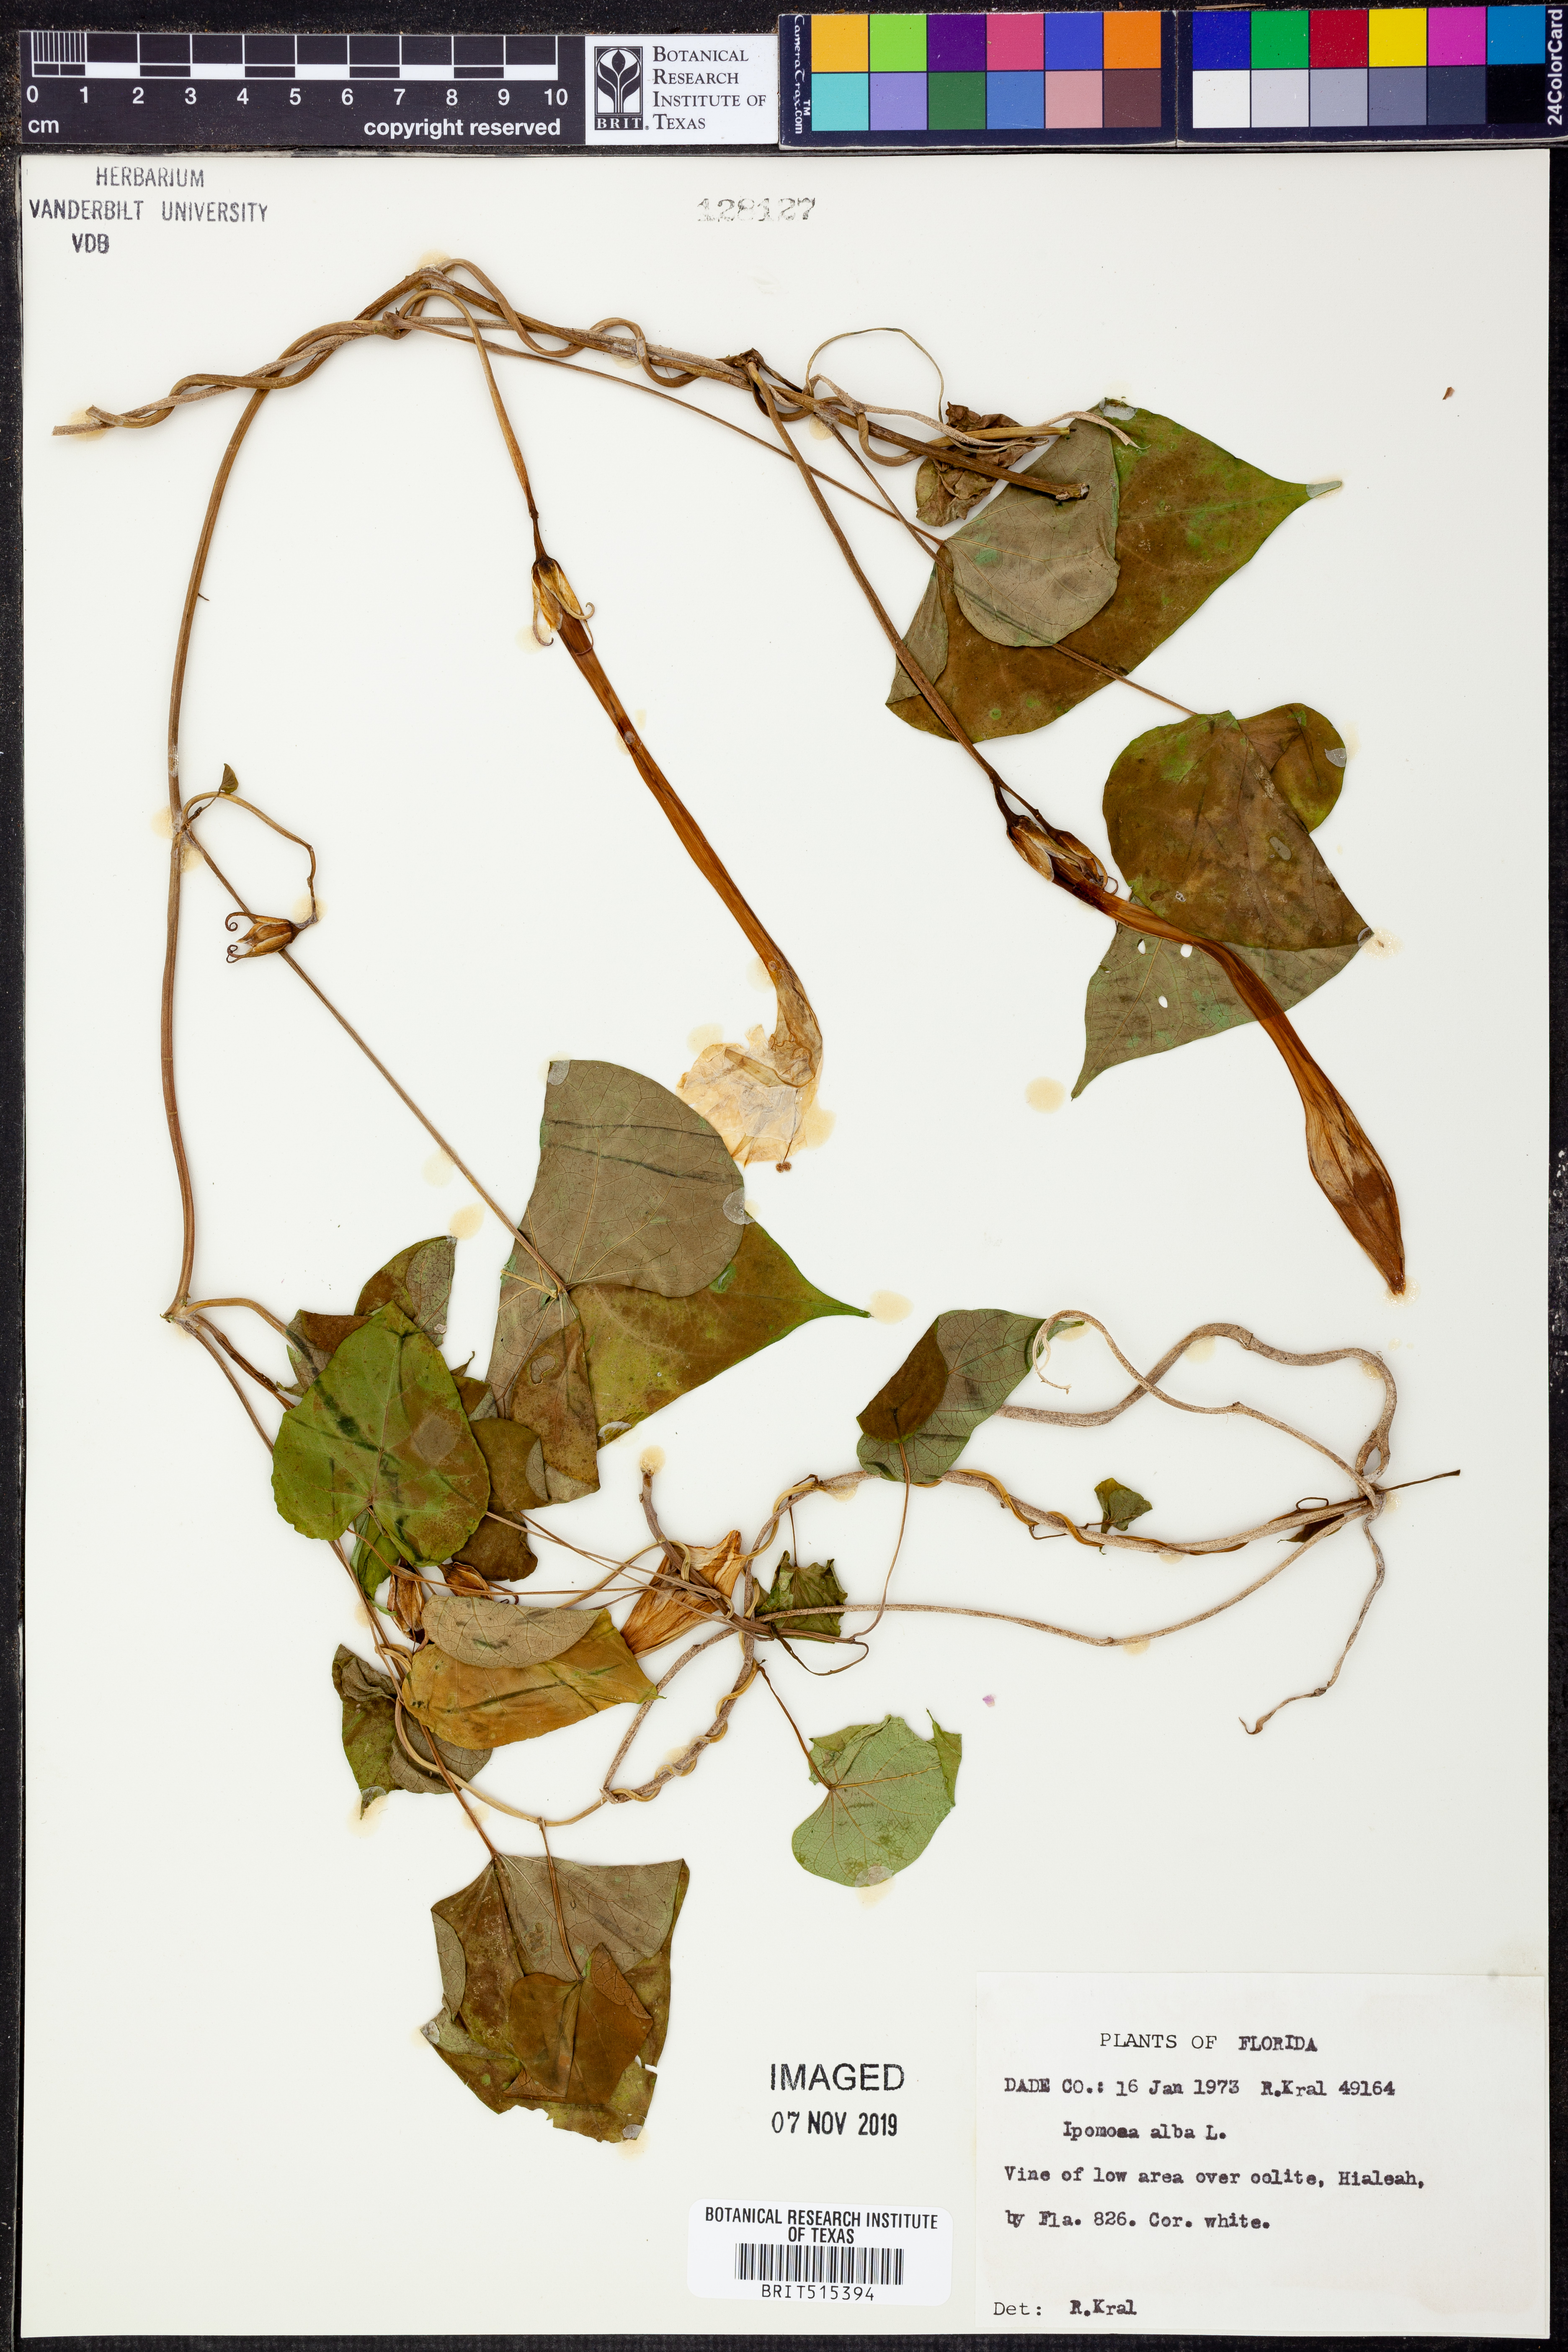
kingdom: Plantae
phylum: Tracheophyta
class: Magnoliopsida
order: Solanales
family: Convolvulaceae
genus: Ipomoea
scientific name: Ipomoea alba
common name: Moonflower
